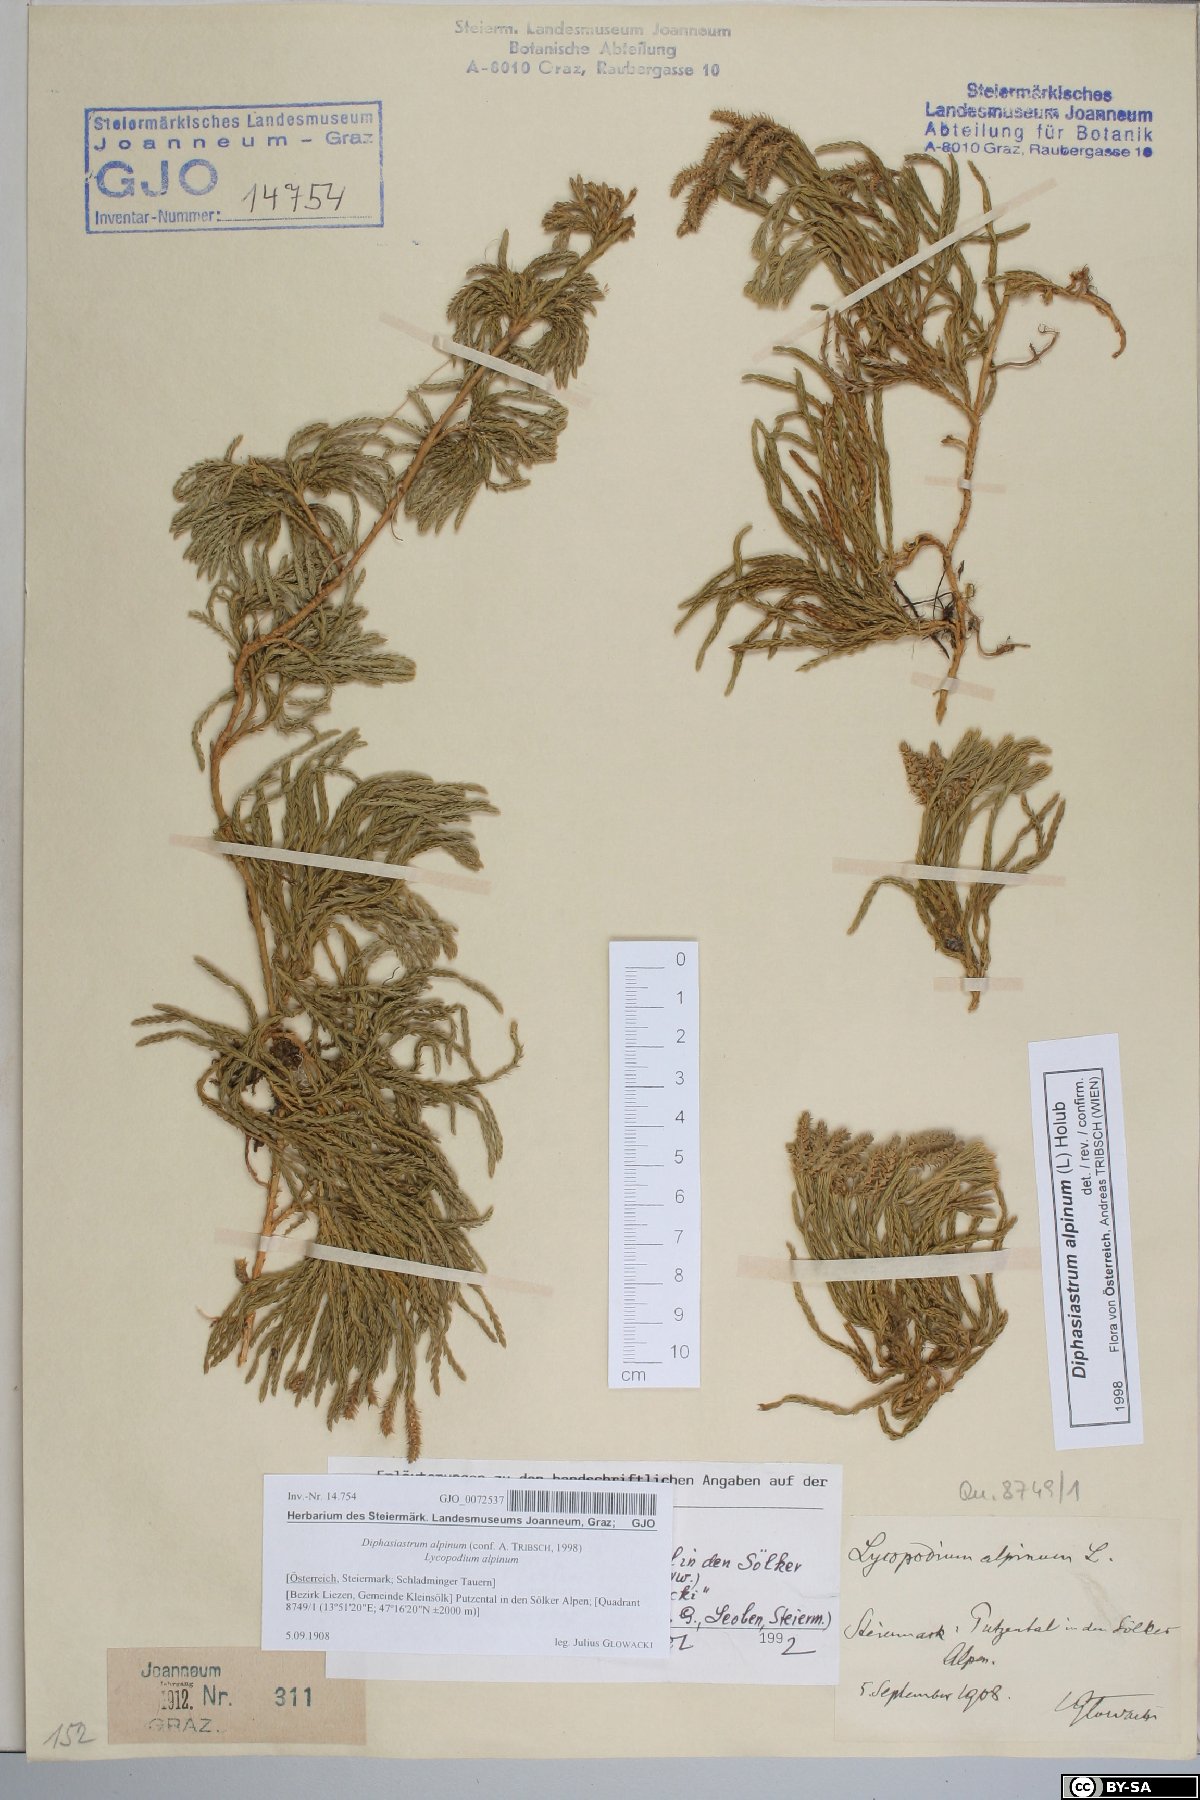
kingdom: Plantae
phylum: Tracheophyta
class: Lycopodiopsida
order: Lycopodiales
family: Lycopodiaceae
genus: Diphasiastrum
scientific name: Diphasiastrum alpinum
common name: Alpine clubmoss
